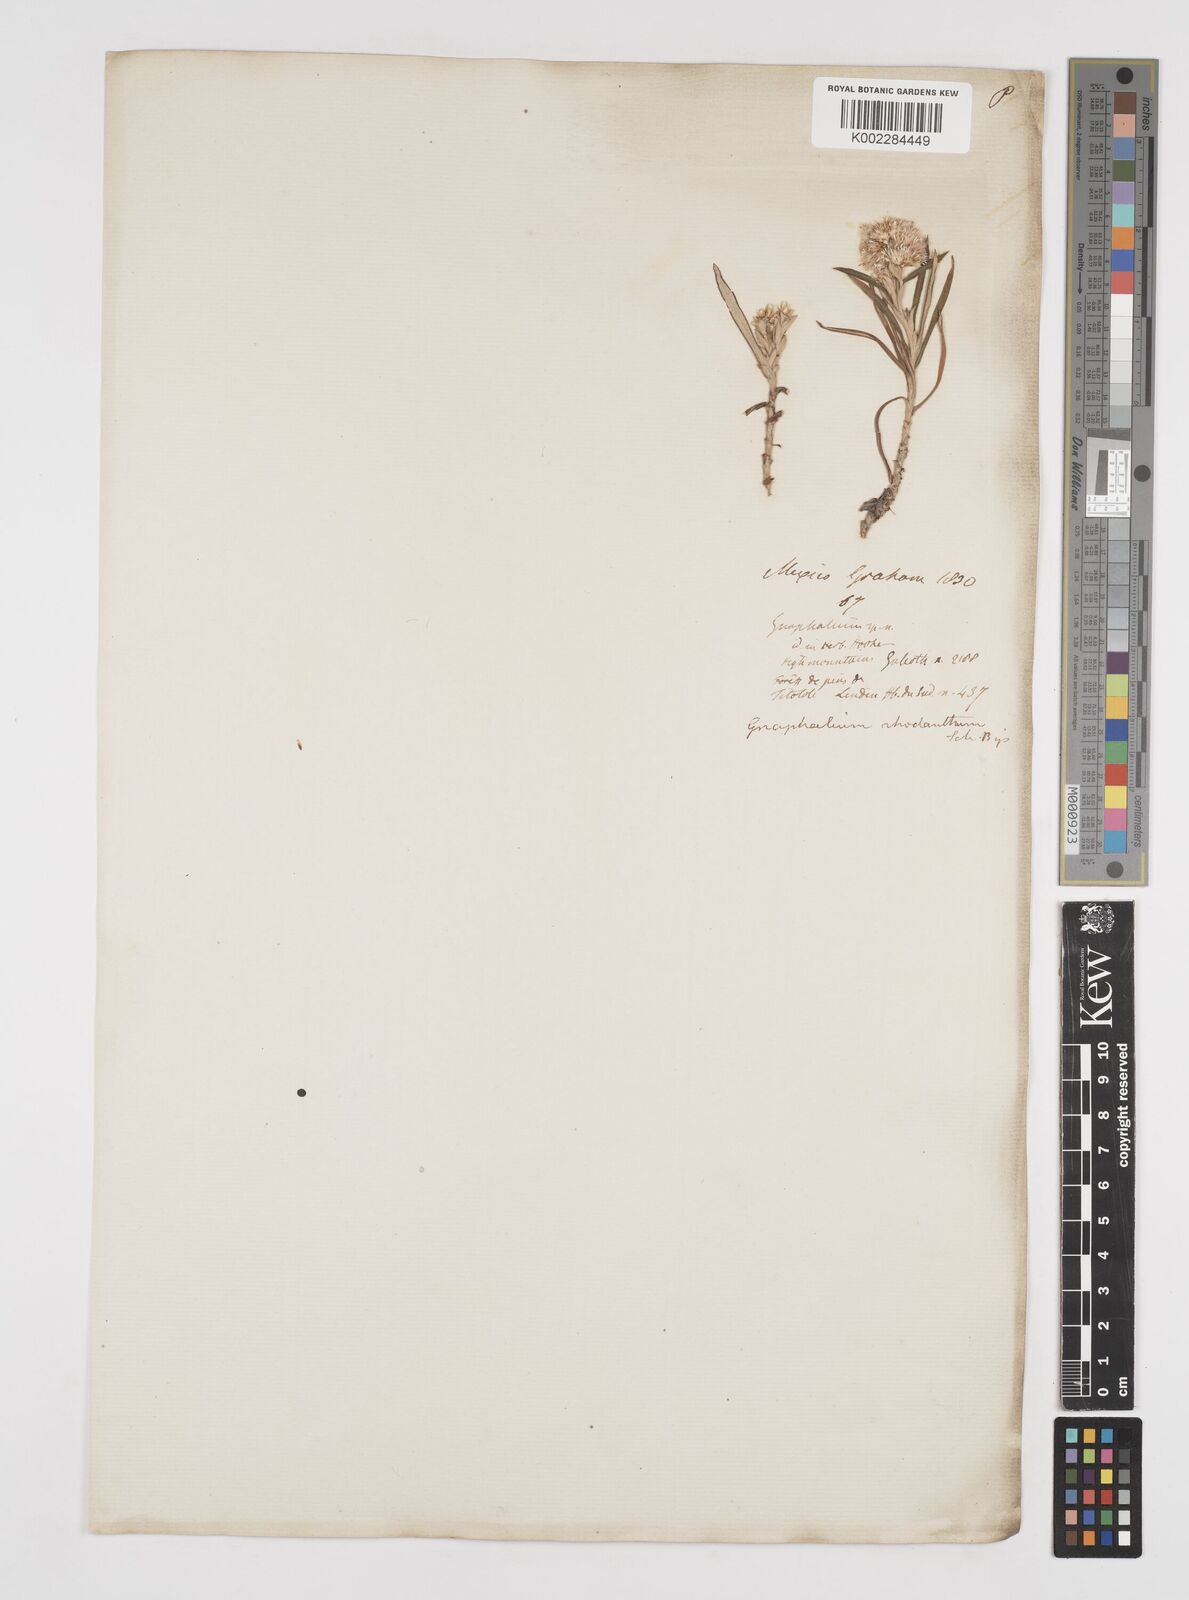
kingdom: Plantae
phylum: Tracheophyta
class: Magnoliopsida
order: Asterales
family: Asteraceae
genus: Gnaphaliothamnus
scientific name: Gnaphaliothamnus salicifolius
